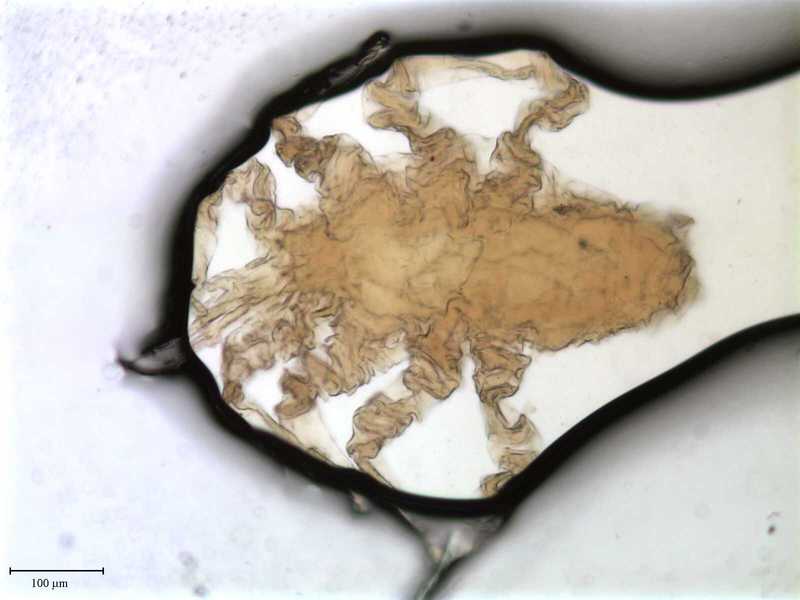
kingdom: Animalia
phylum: Arthropoda
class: Arachnida
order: Mesostigmata
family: Entonyssidae
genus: Entophionyssus
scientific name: Entophionyssus glasmacheri
